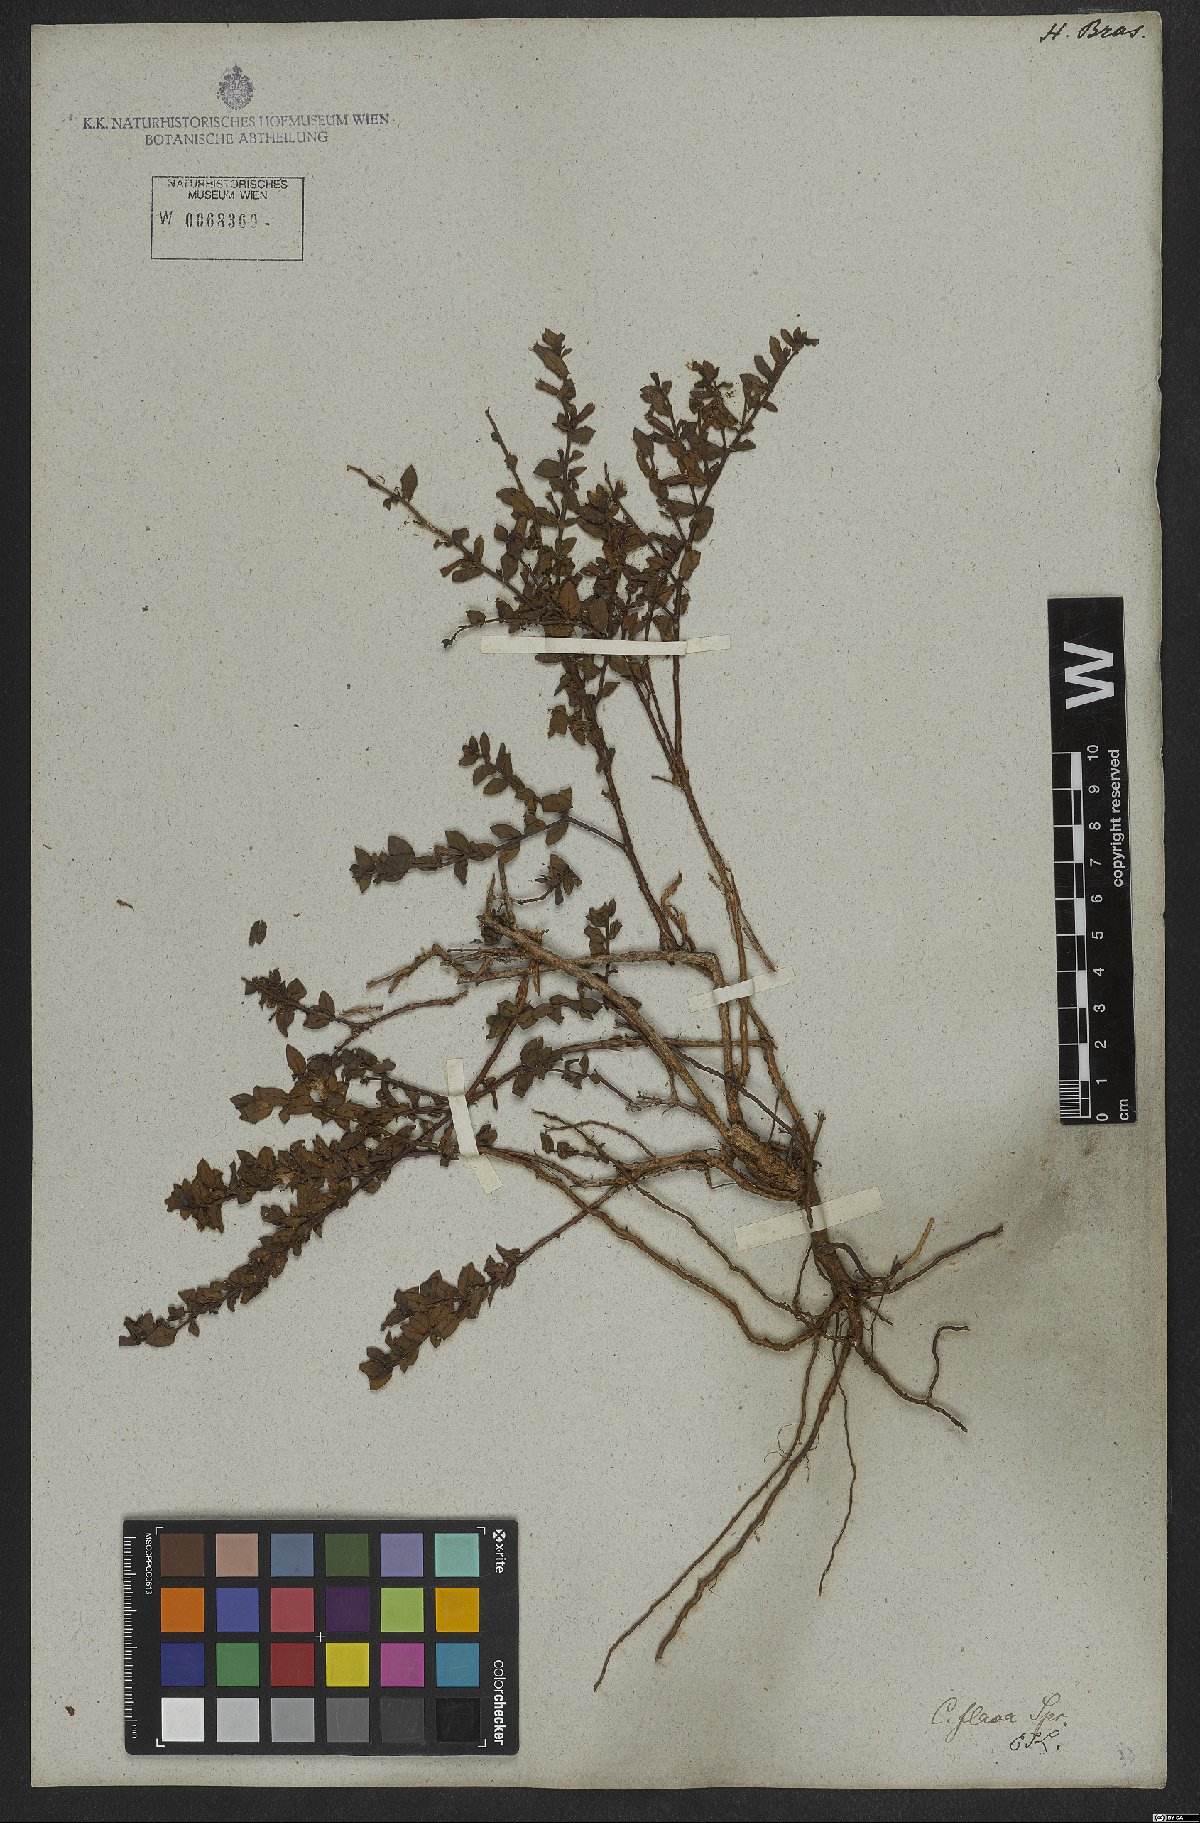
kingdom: Plantae
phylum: Tracheophyta
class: Magnoliopsida
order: Myrtales
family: Lythraceae
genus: Cuphea
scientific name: Cuphea flava
